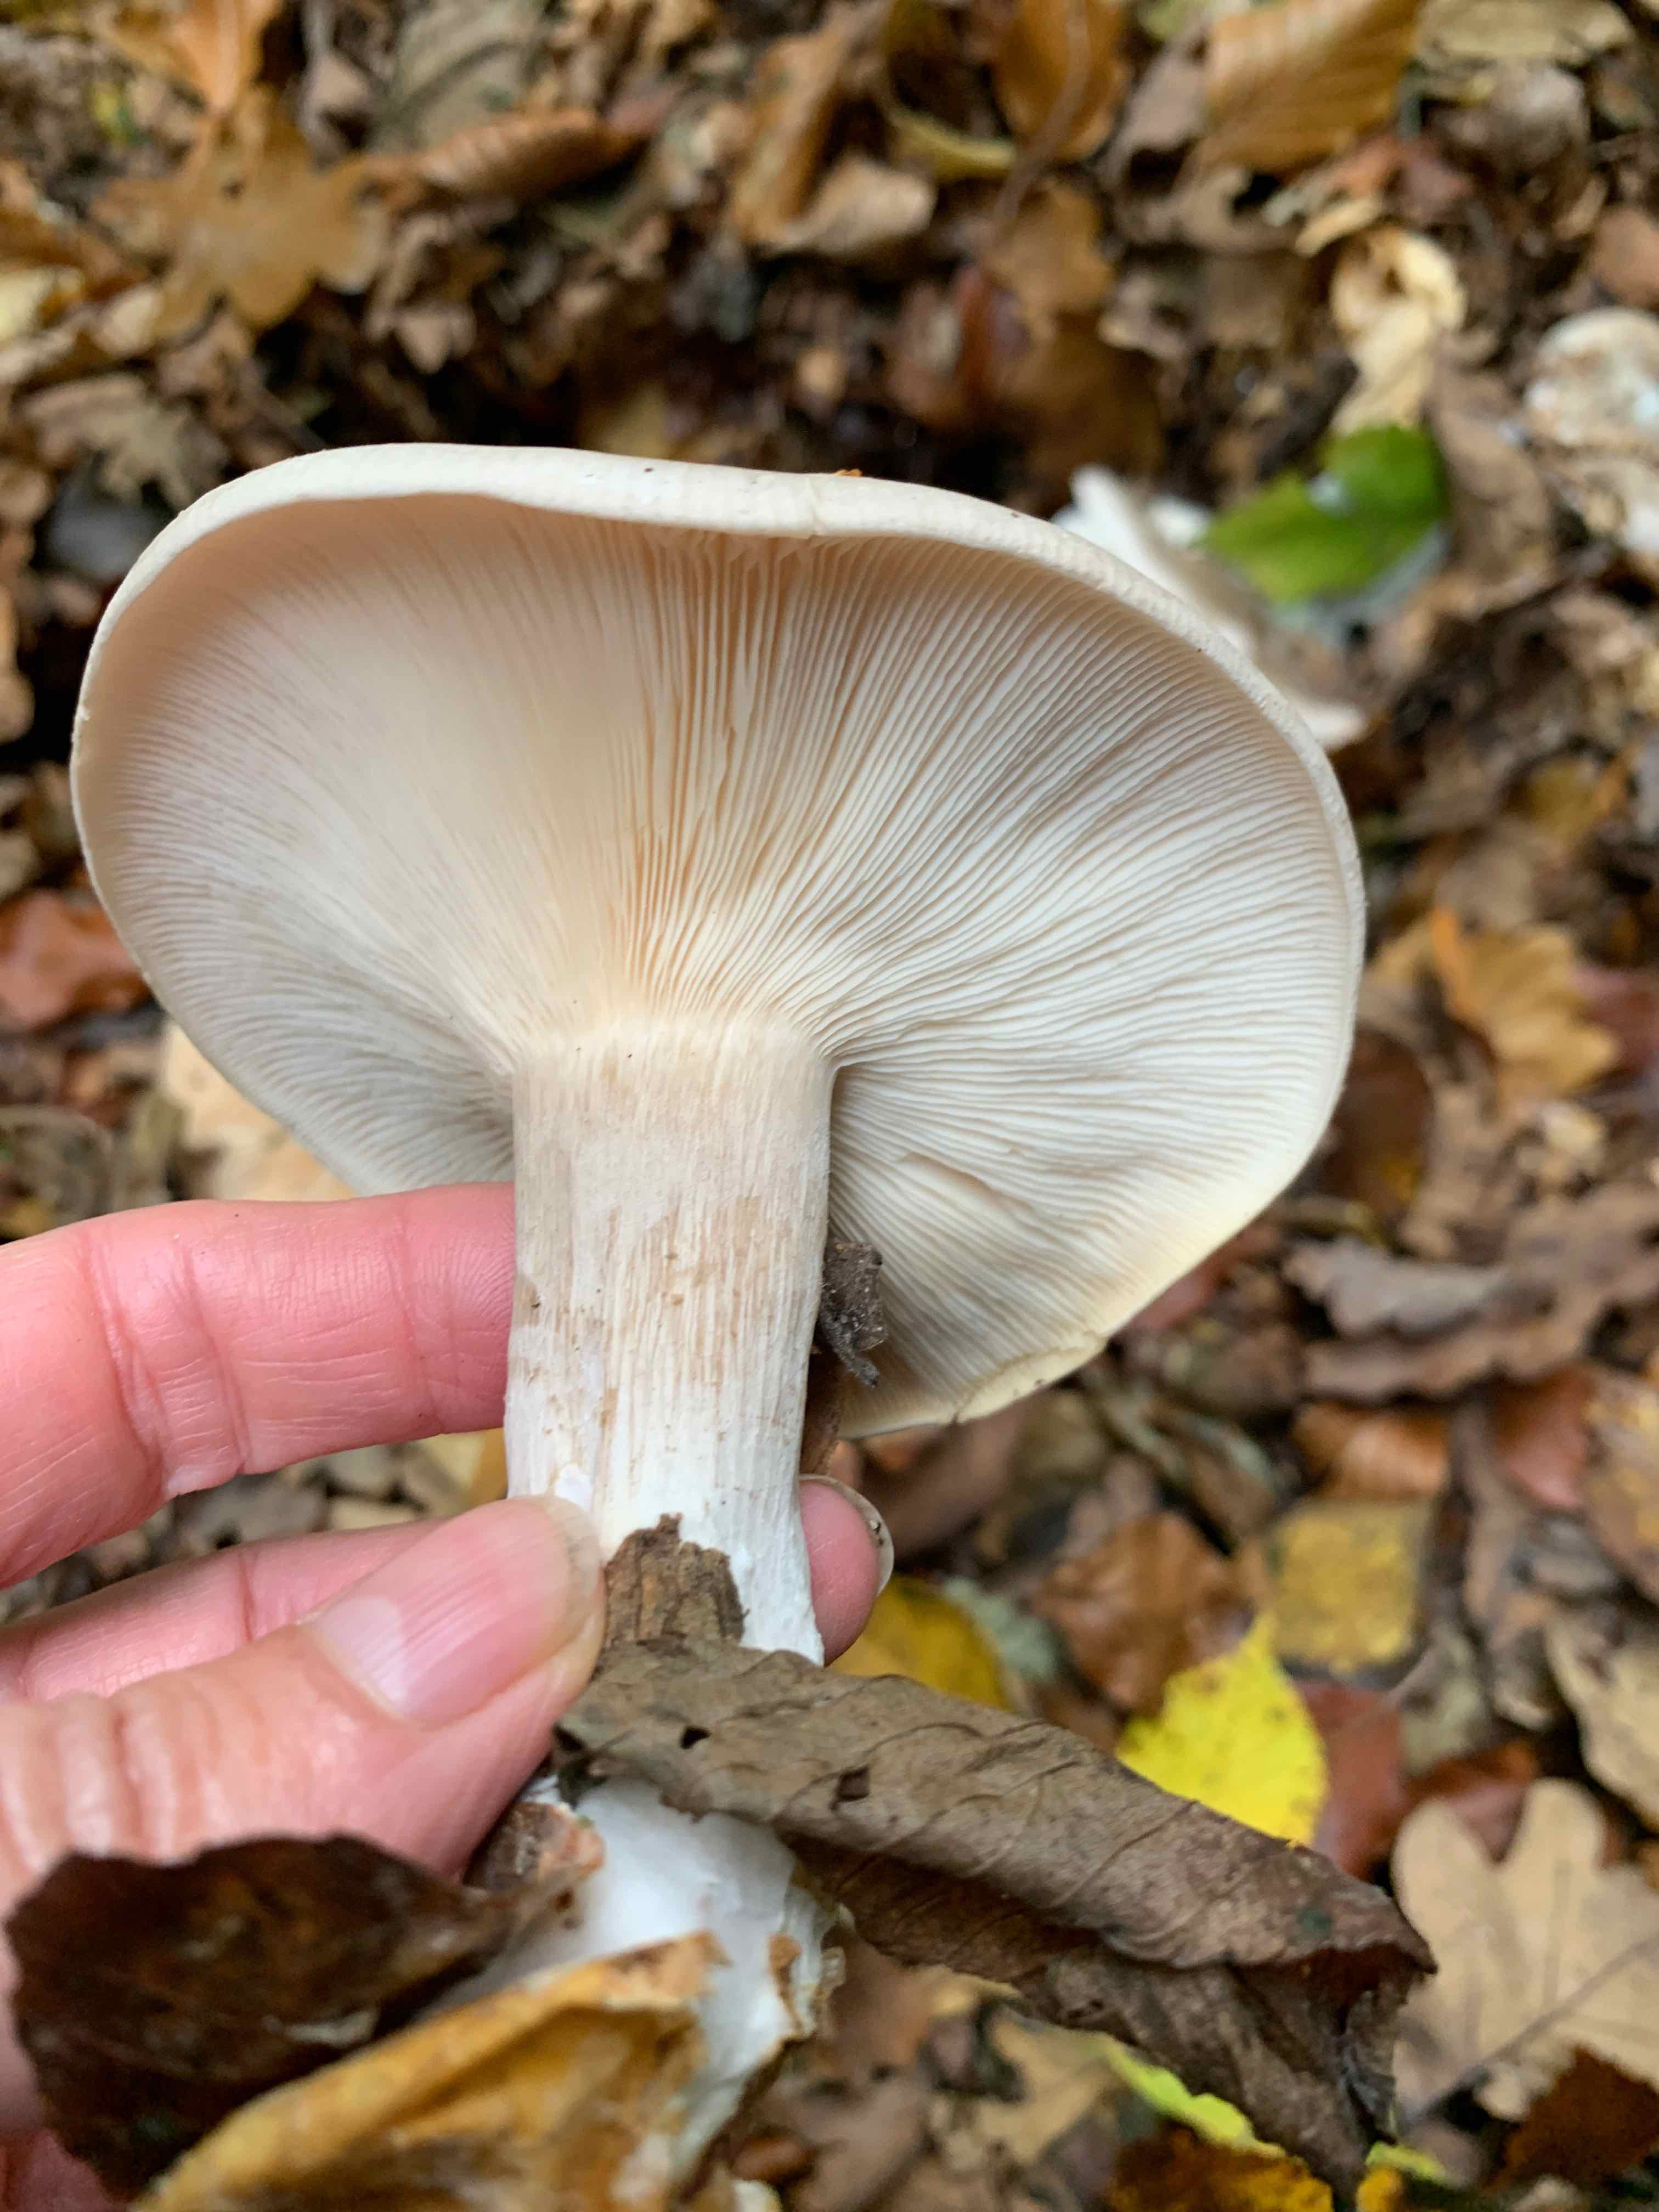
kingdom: Fungi
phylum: Basidiomycota
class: Agaricomycetes
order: Agaricales
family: Tricholomataceae
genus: Clitocybe
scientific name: Clitocybe nebularis
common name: tåge-tragthat
